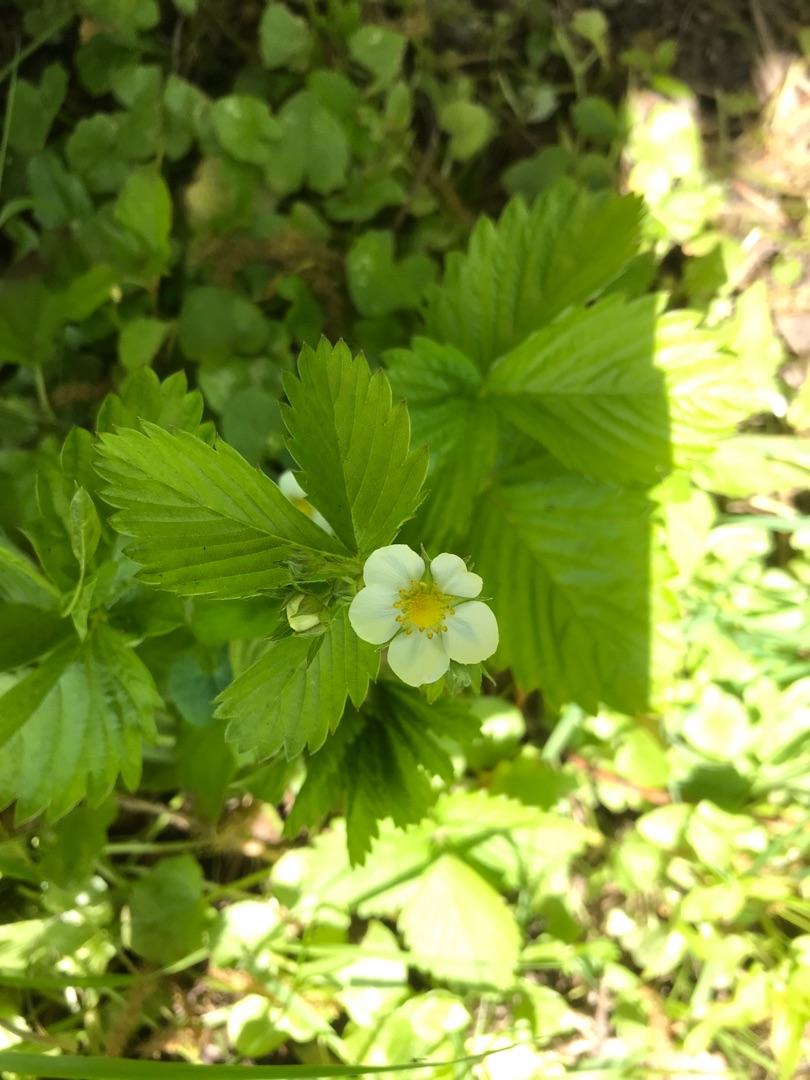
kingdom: Plantae
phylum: Tracheophyta
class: Magnoliopsida
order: Rosales
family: Rosaceae
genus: Fragaria
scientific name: Fragaria vesca
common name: Skov-jordbær
